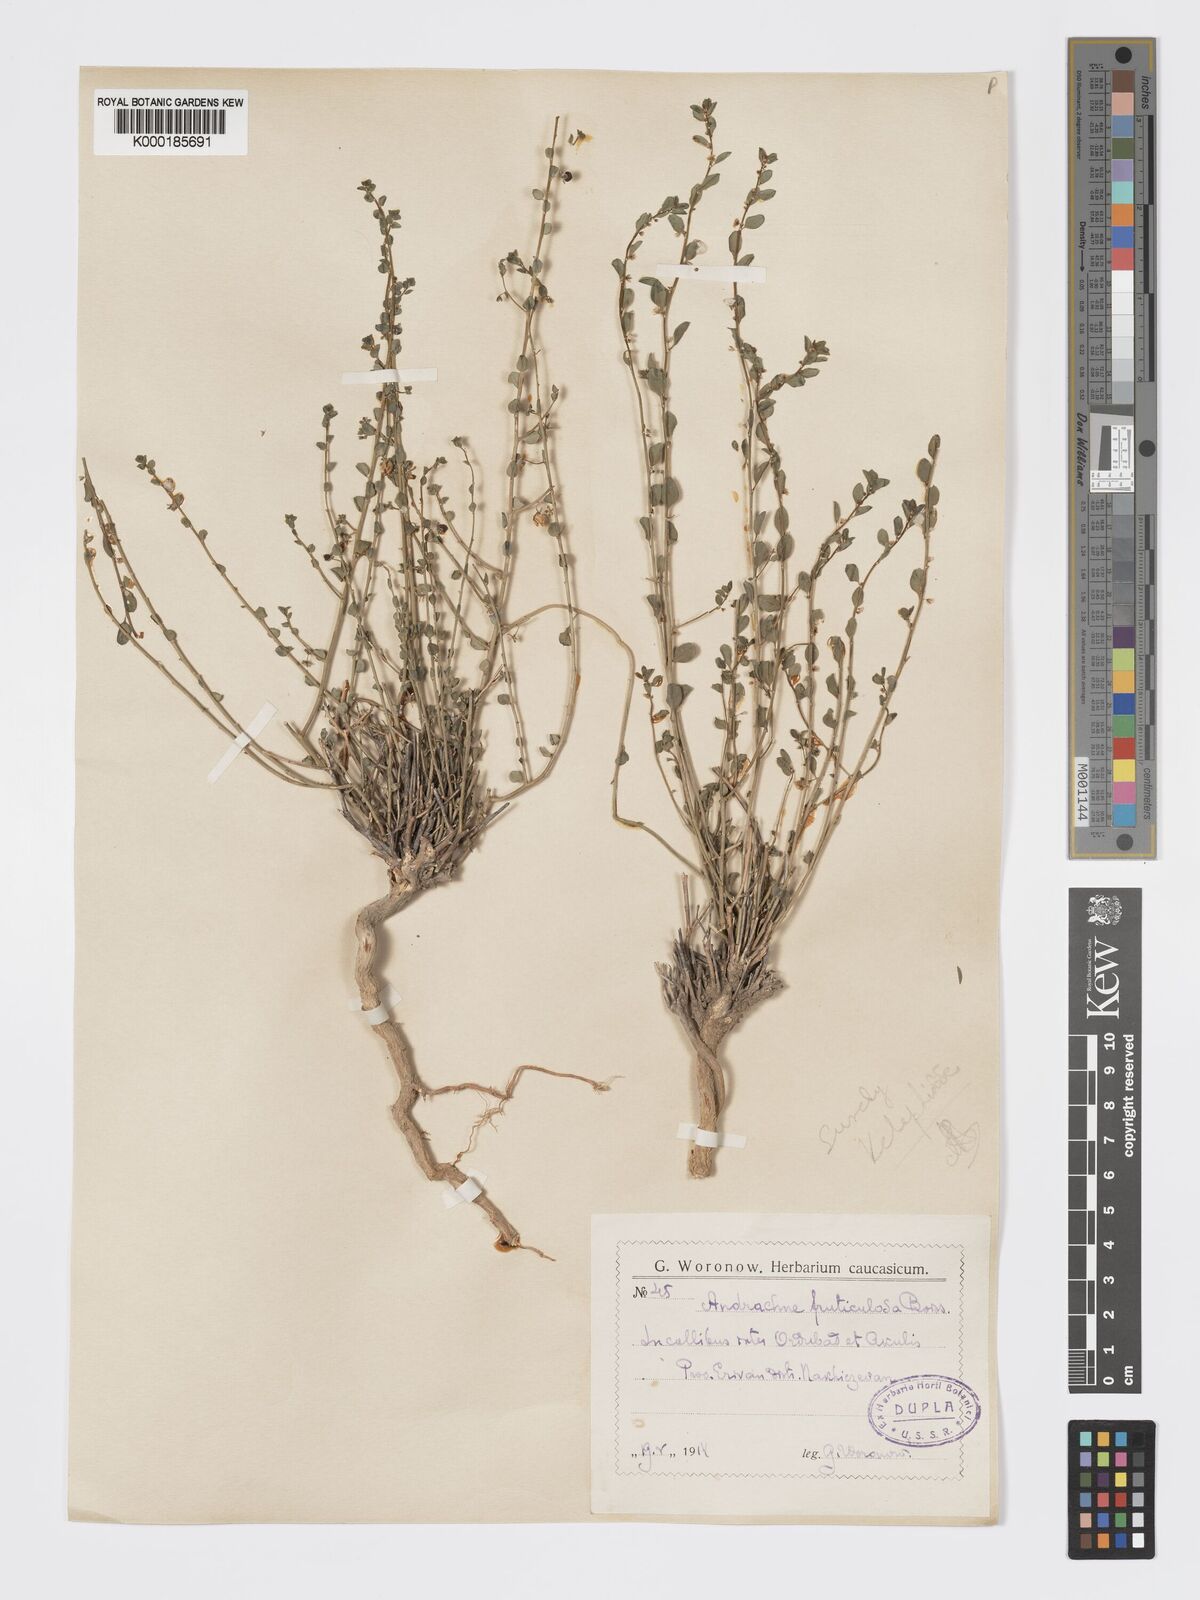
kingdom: Plantae
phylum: Tracheophyta
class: Magnoliopsida
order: Malpighiales
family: Phyllanthaceae
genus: Andrachne
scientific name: Andrachne fruticulosa
